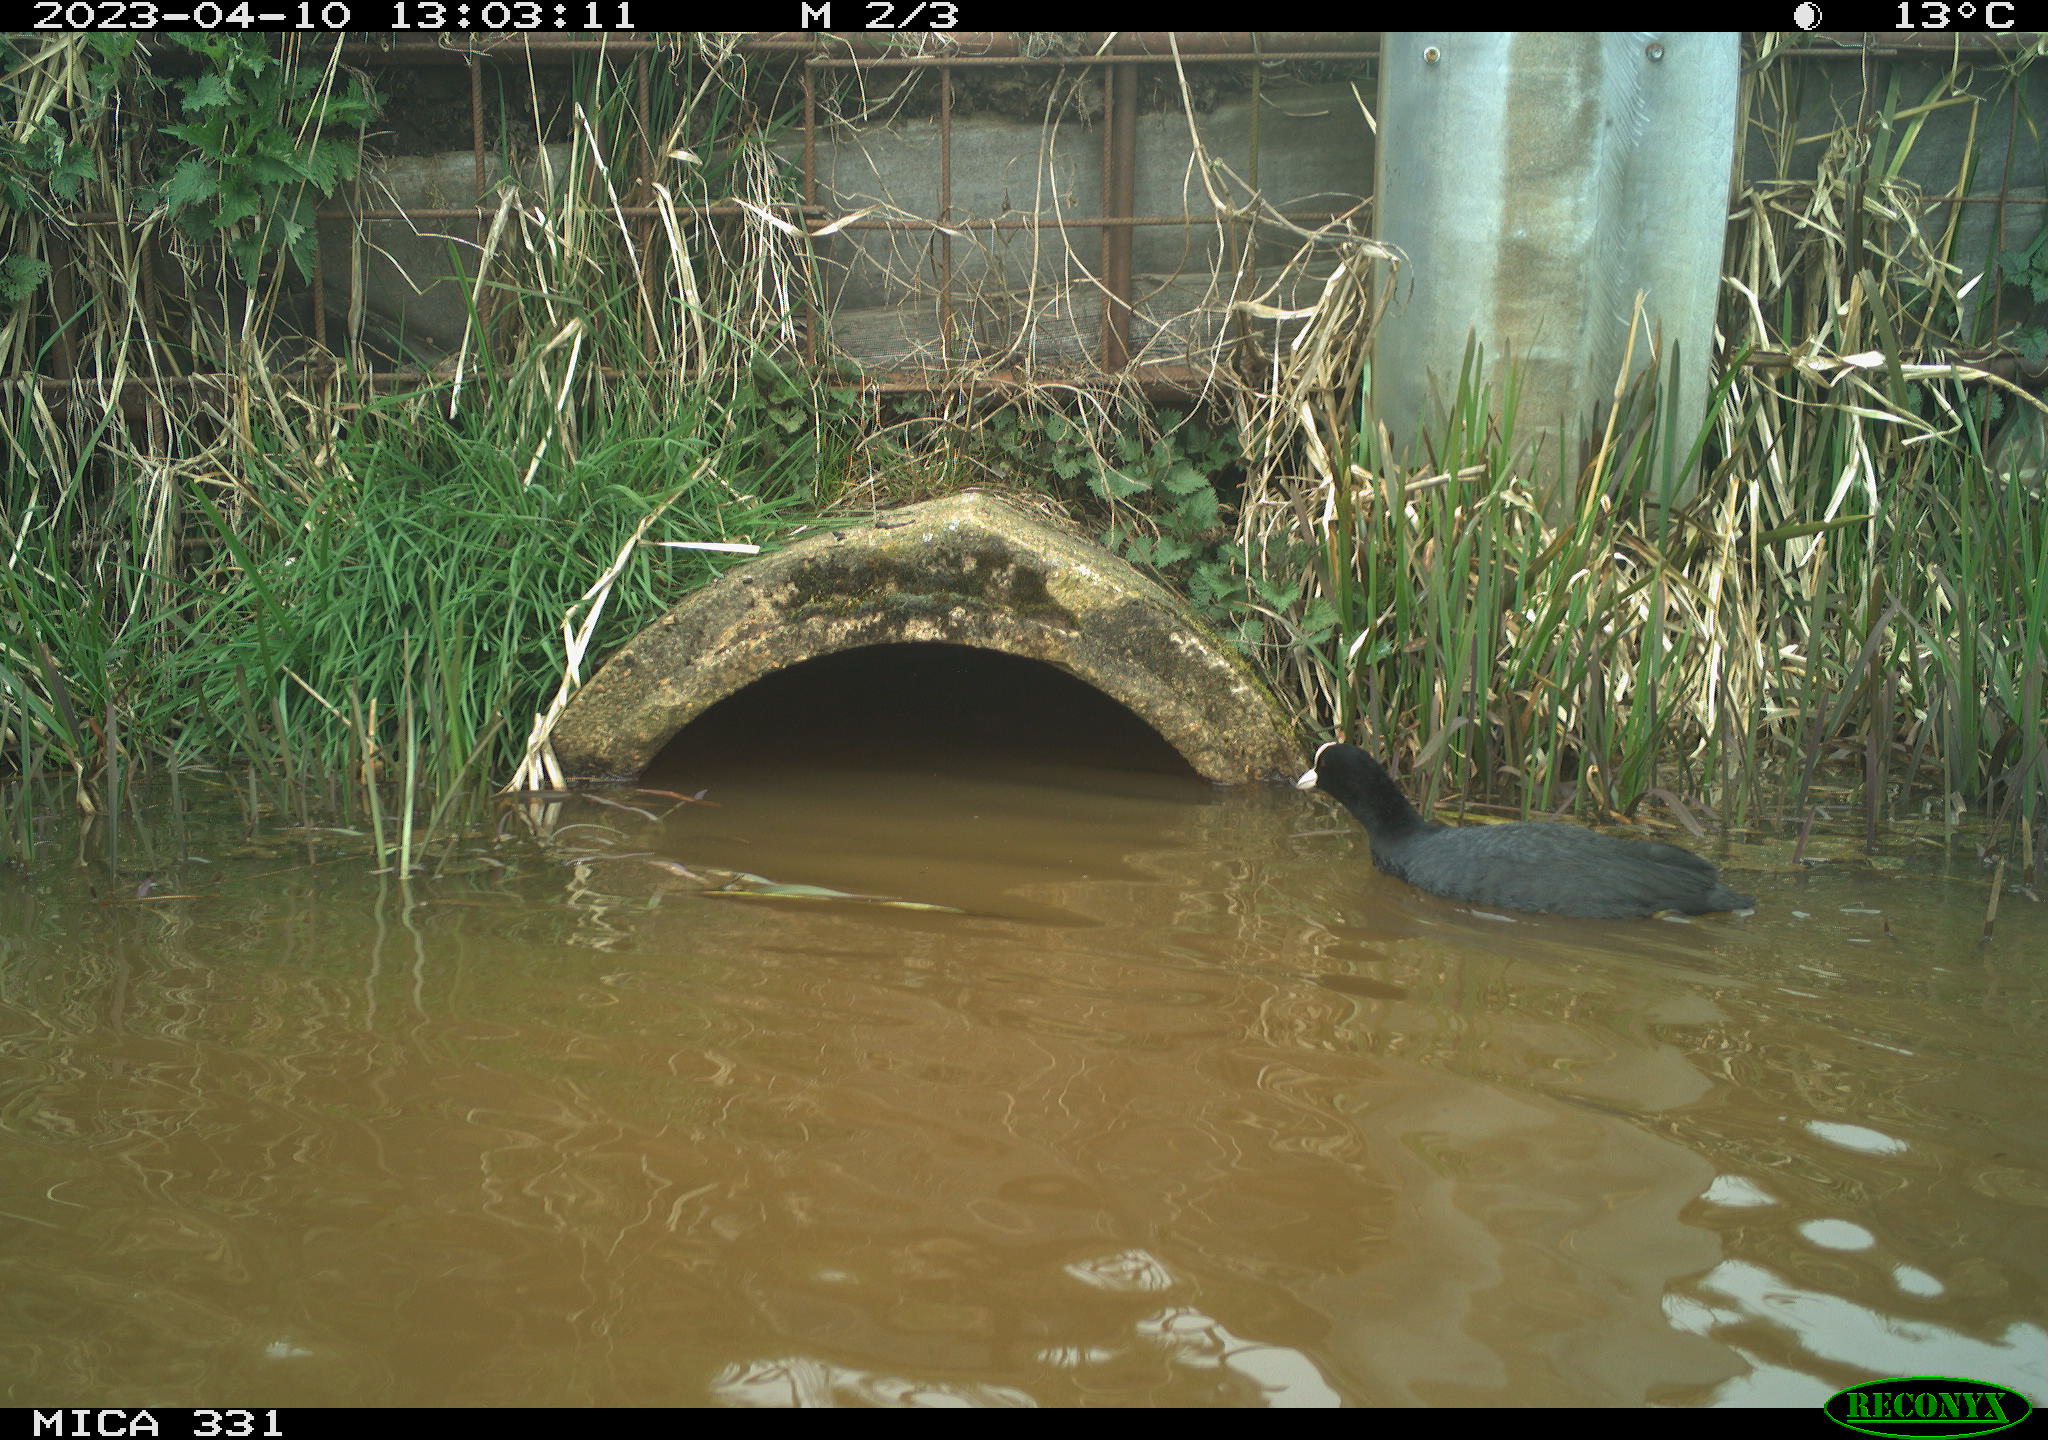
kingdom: Animalia
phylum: Chordata
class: Aves
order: Gruiformes
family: Rallidae
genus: Gallinula
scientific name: Gallinula chloropus
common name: Common moorhen
